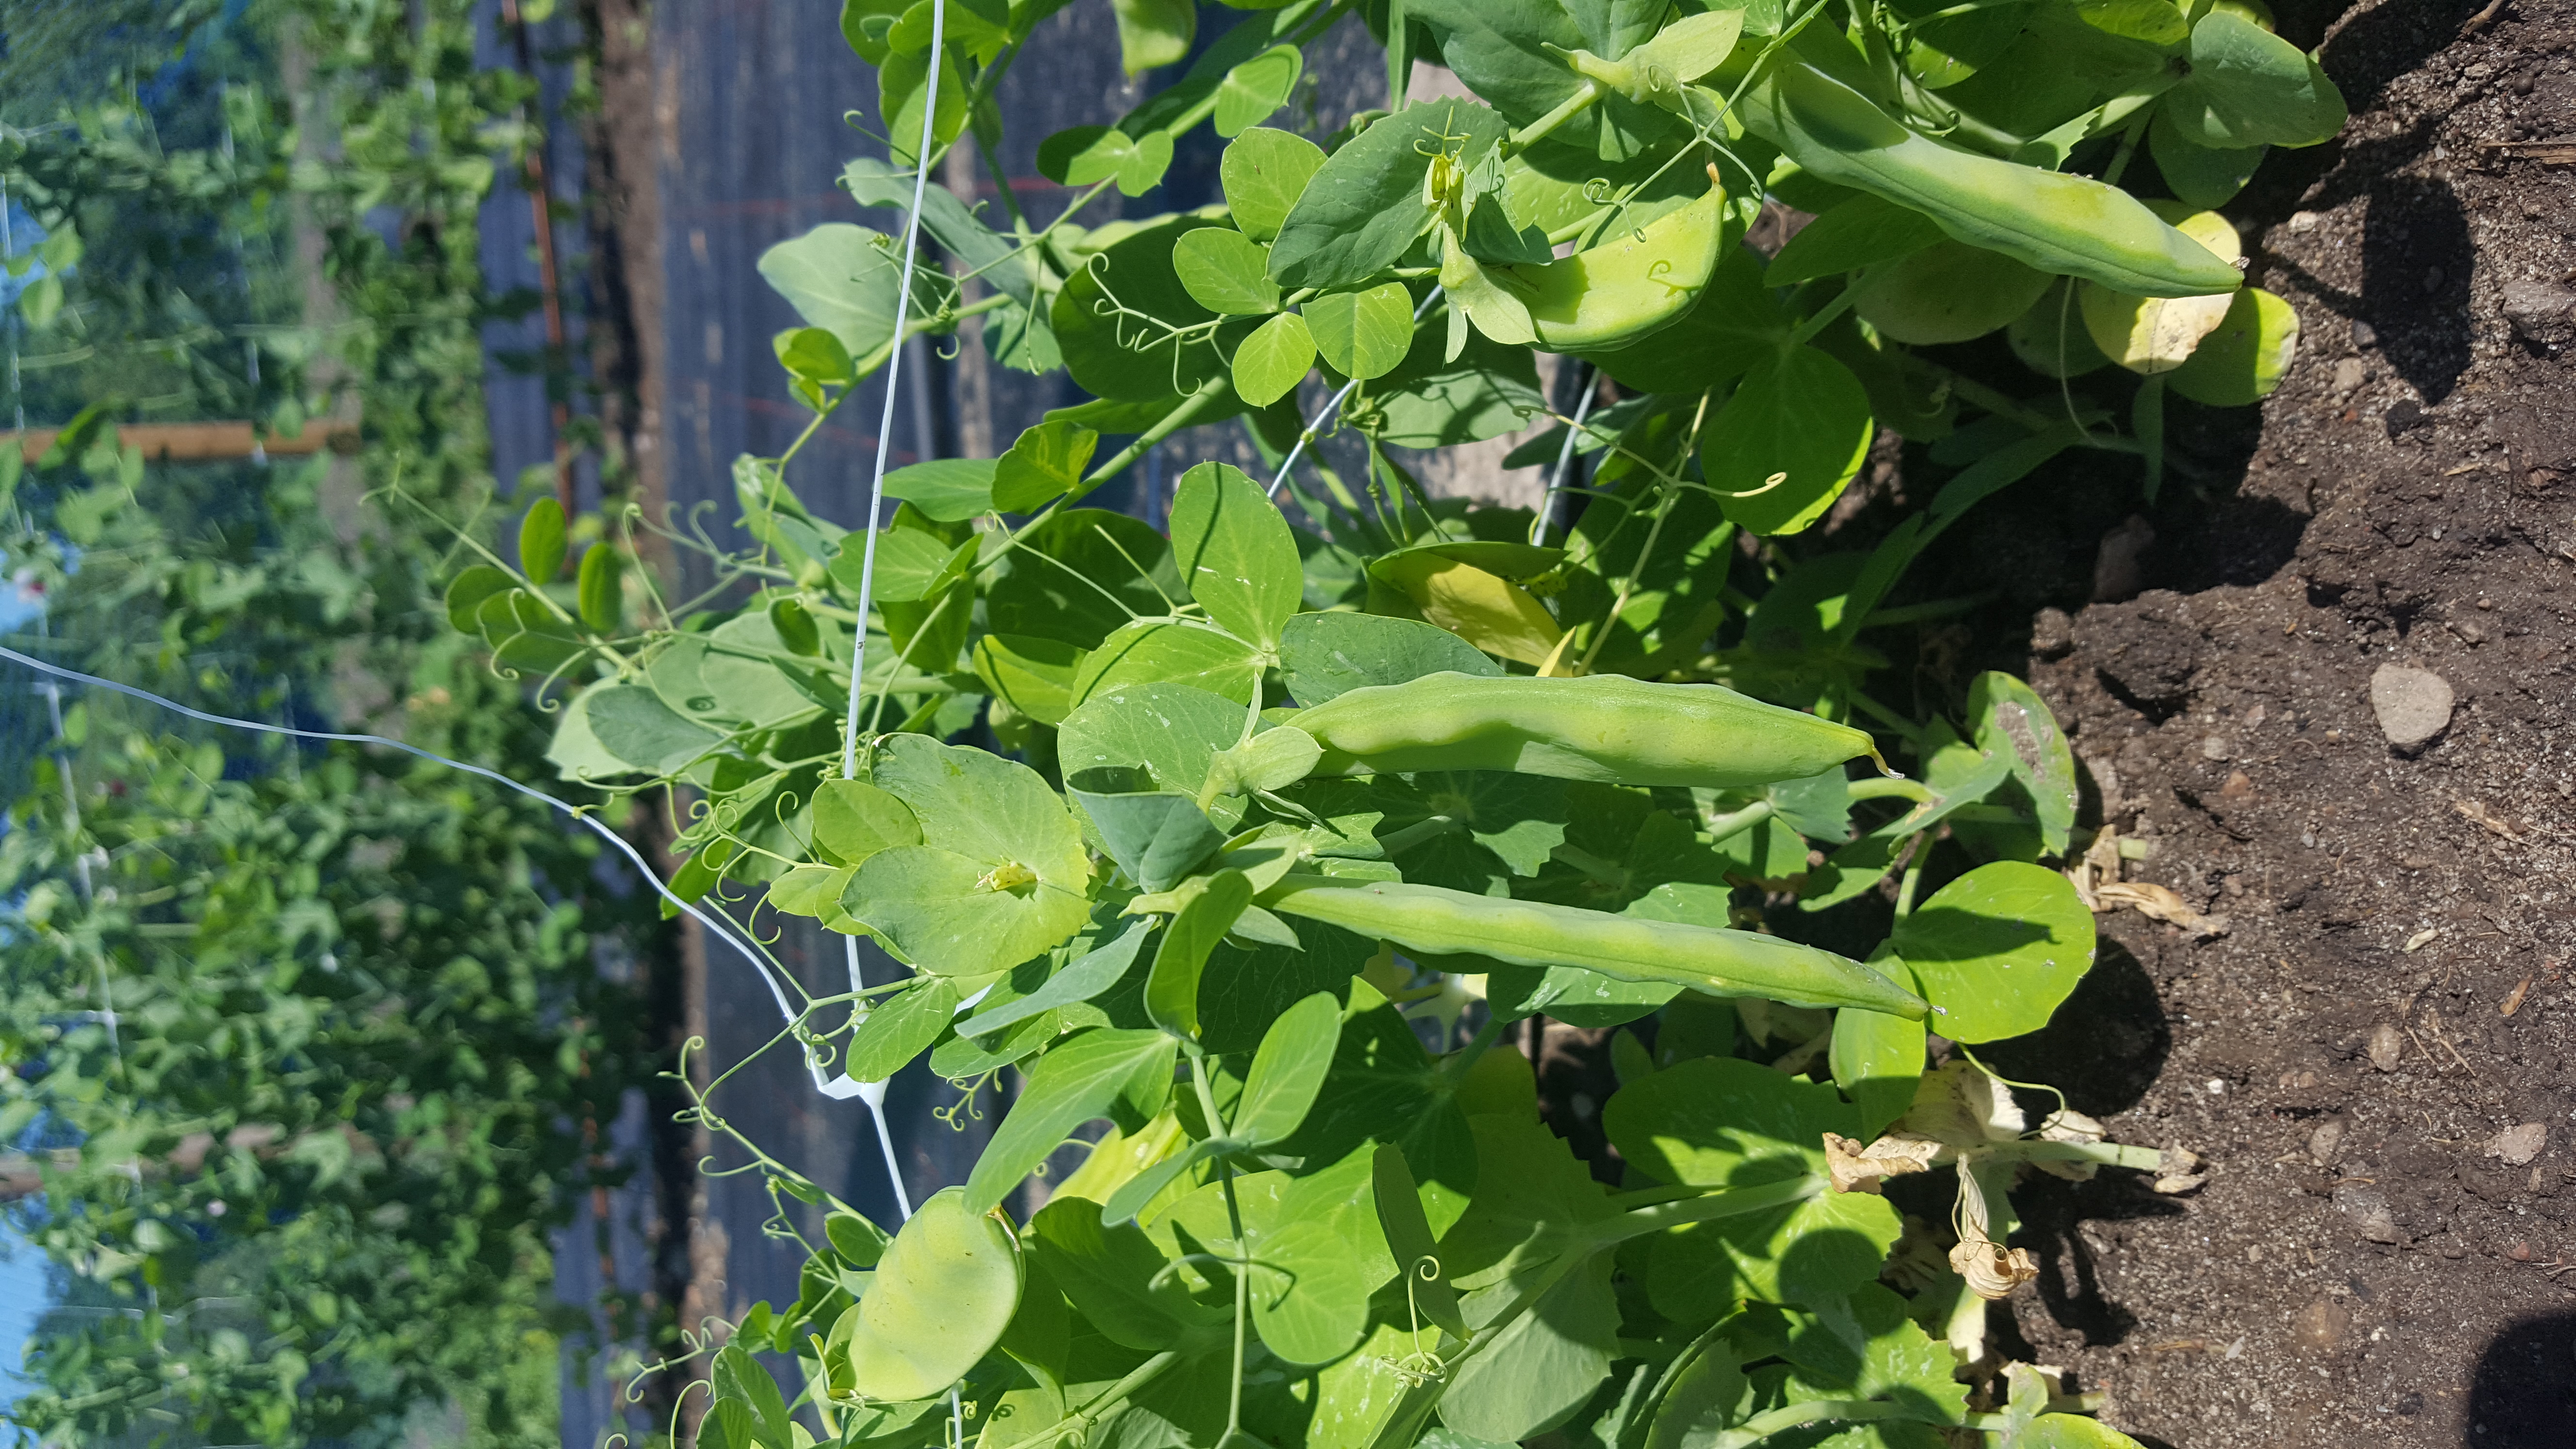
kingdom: Plantae
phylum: Tracheophyta
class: Magnoliopsida
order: Fabales
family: Fabaceae
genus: Lathyrus
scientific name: Lathyrus oleraceus
